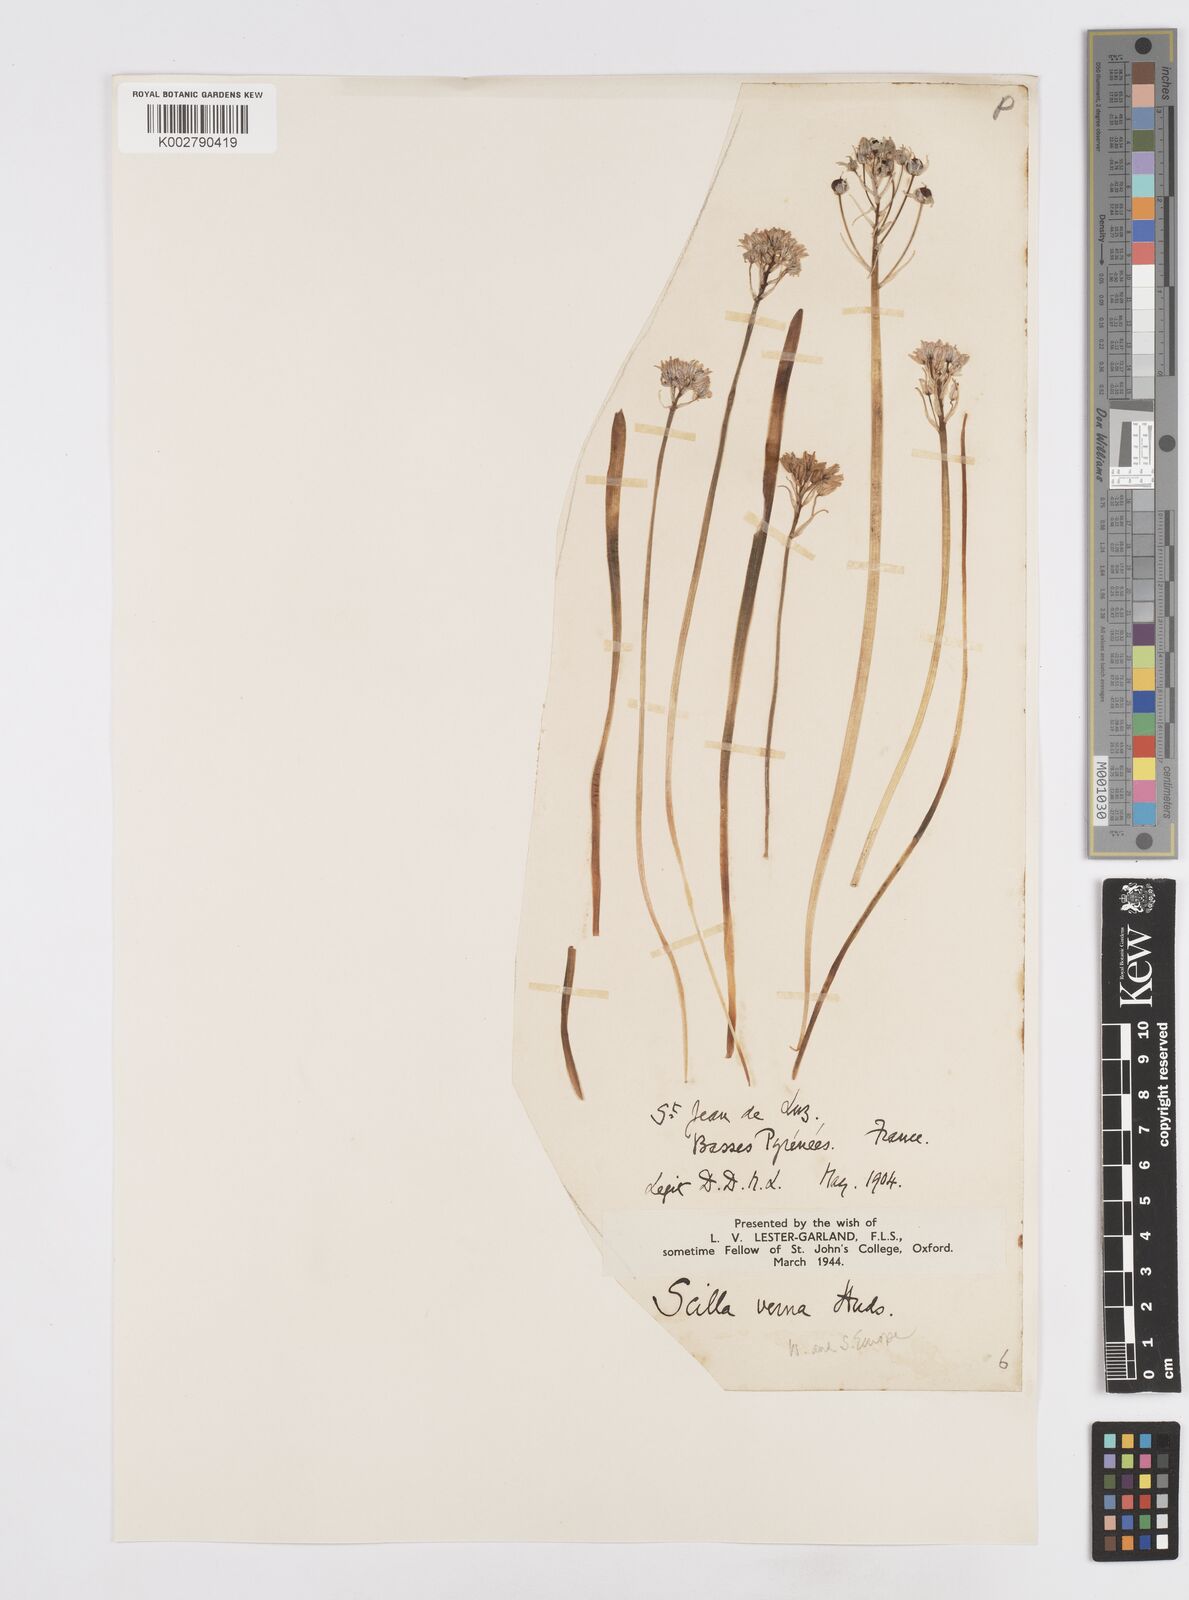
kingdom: Plantae
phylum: Tracheophyta
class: Liliopsida
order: Asparagales
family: Asparagaceae
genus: Scilla
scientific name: Scilla verna
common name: Spring squill
